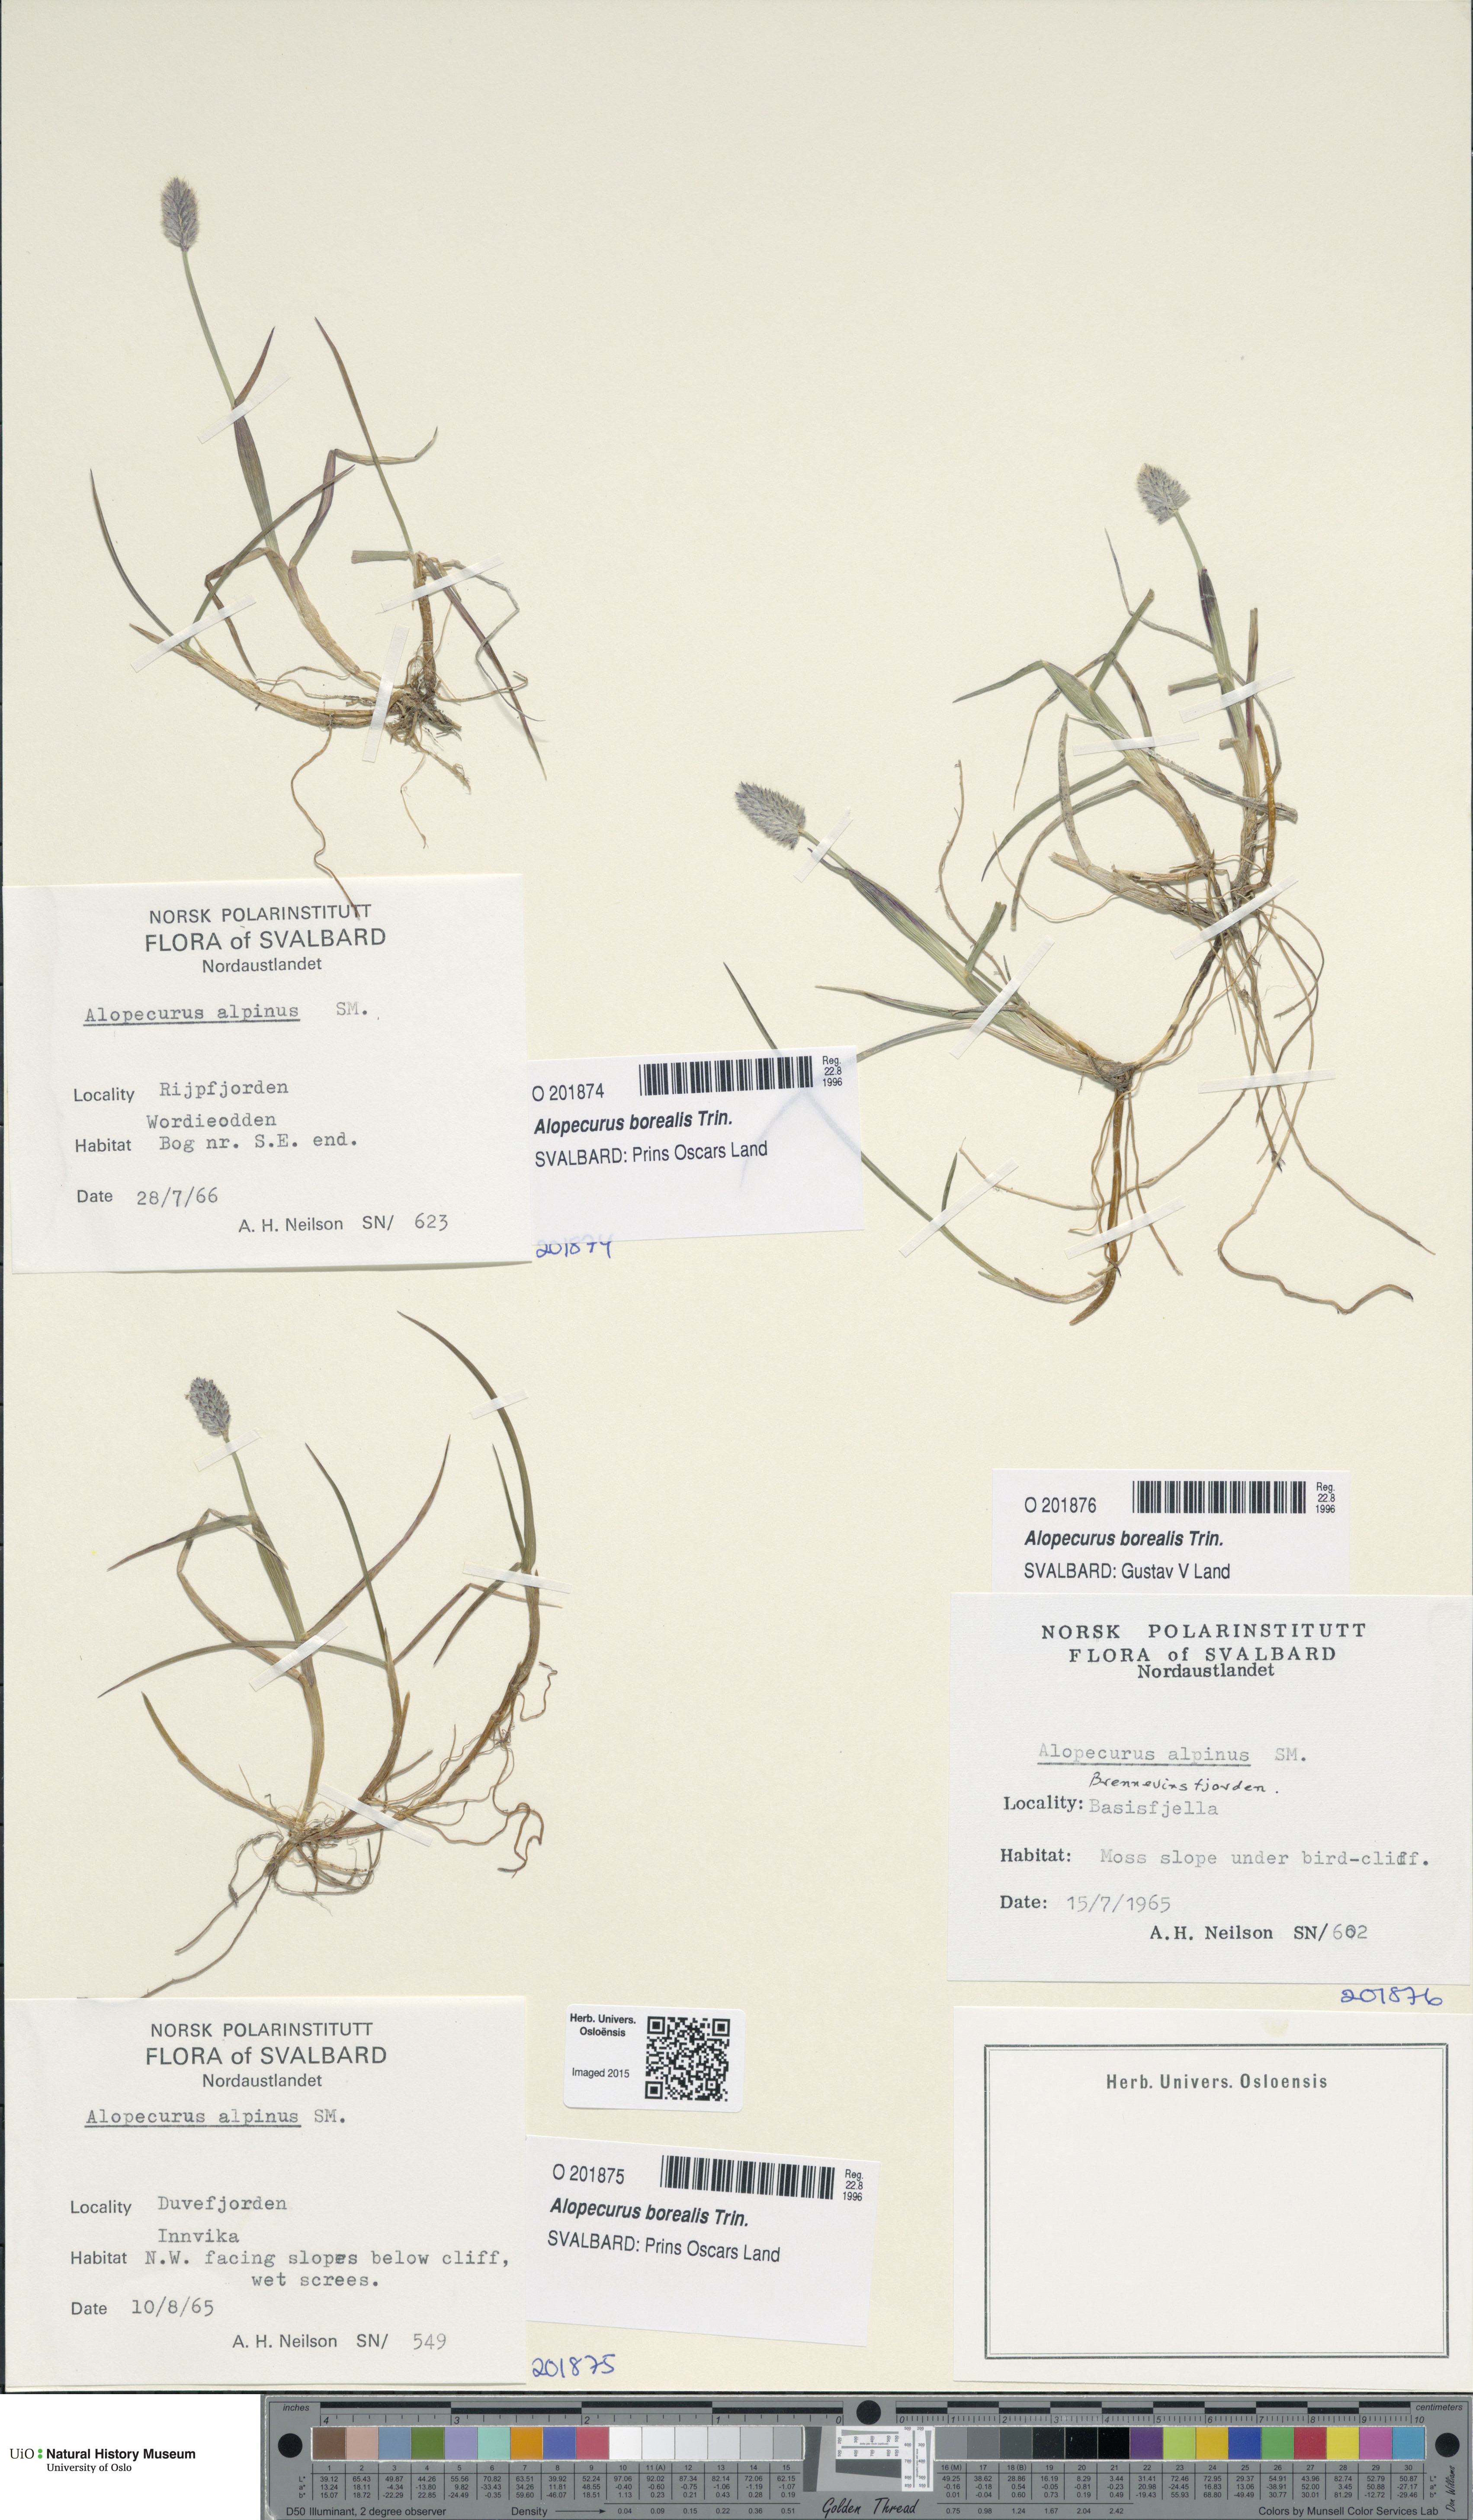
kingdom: Plantae
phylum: Tracheophyta
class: Liliopsida
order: Poales
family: Poaceae
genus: Alopecurus
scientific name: Alopecurus magellanicus
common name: Alpine foxtail
